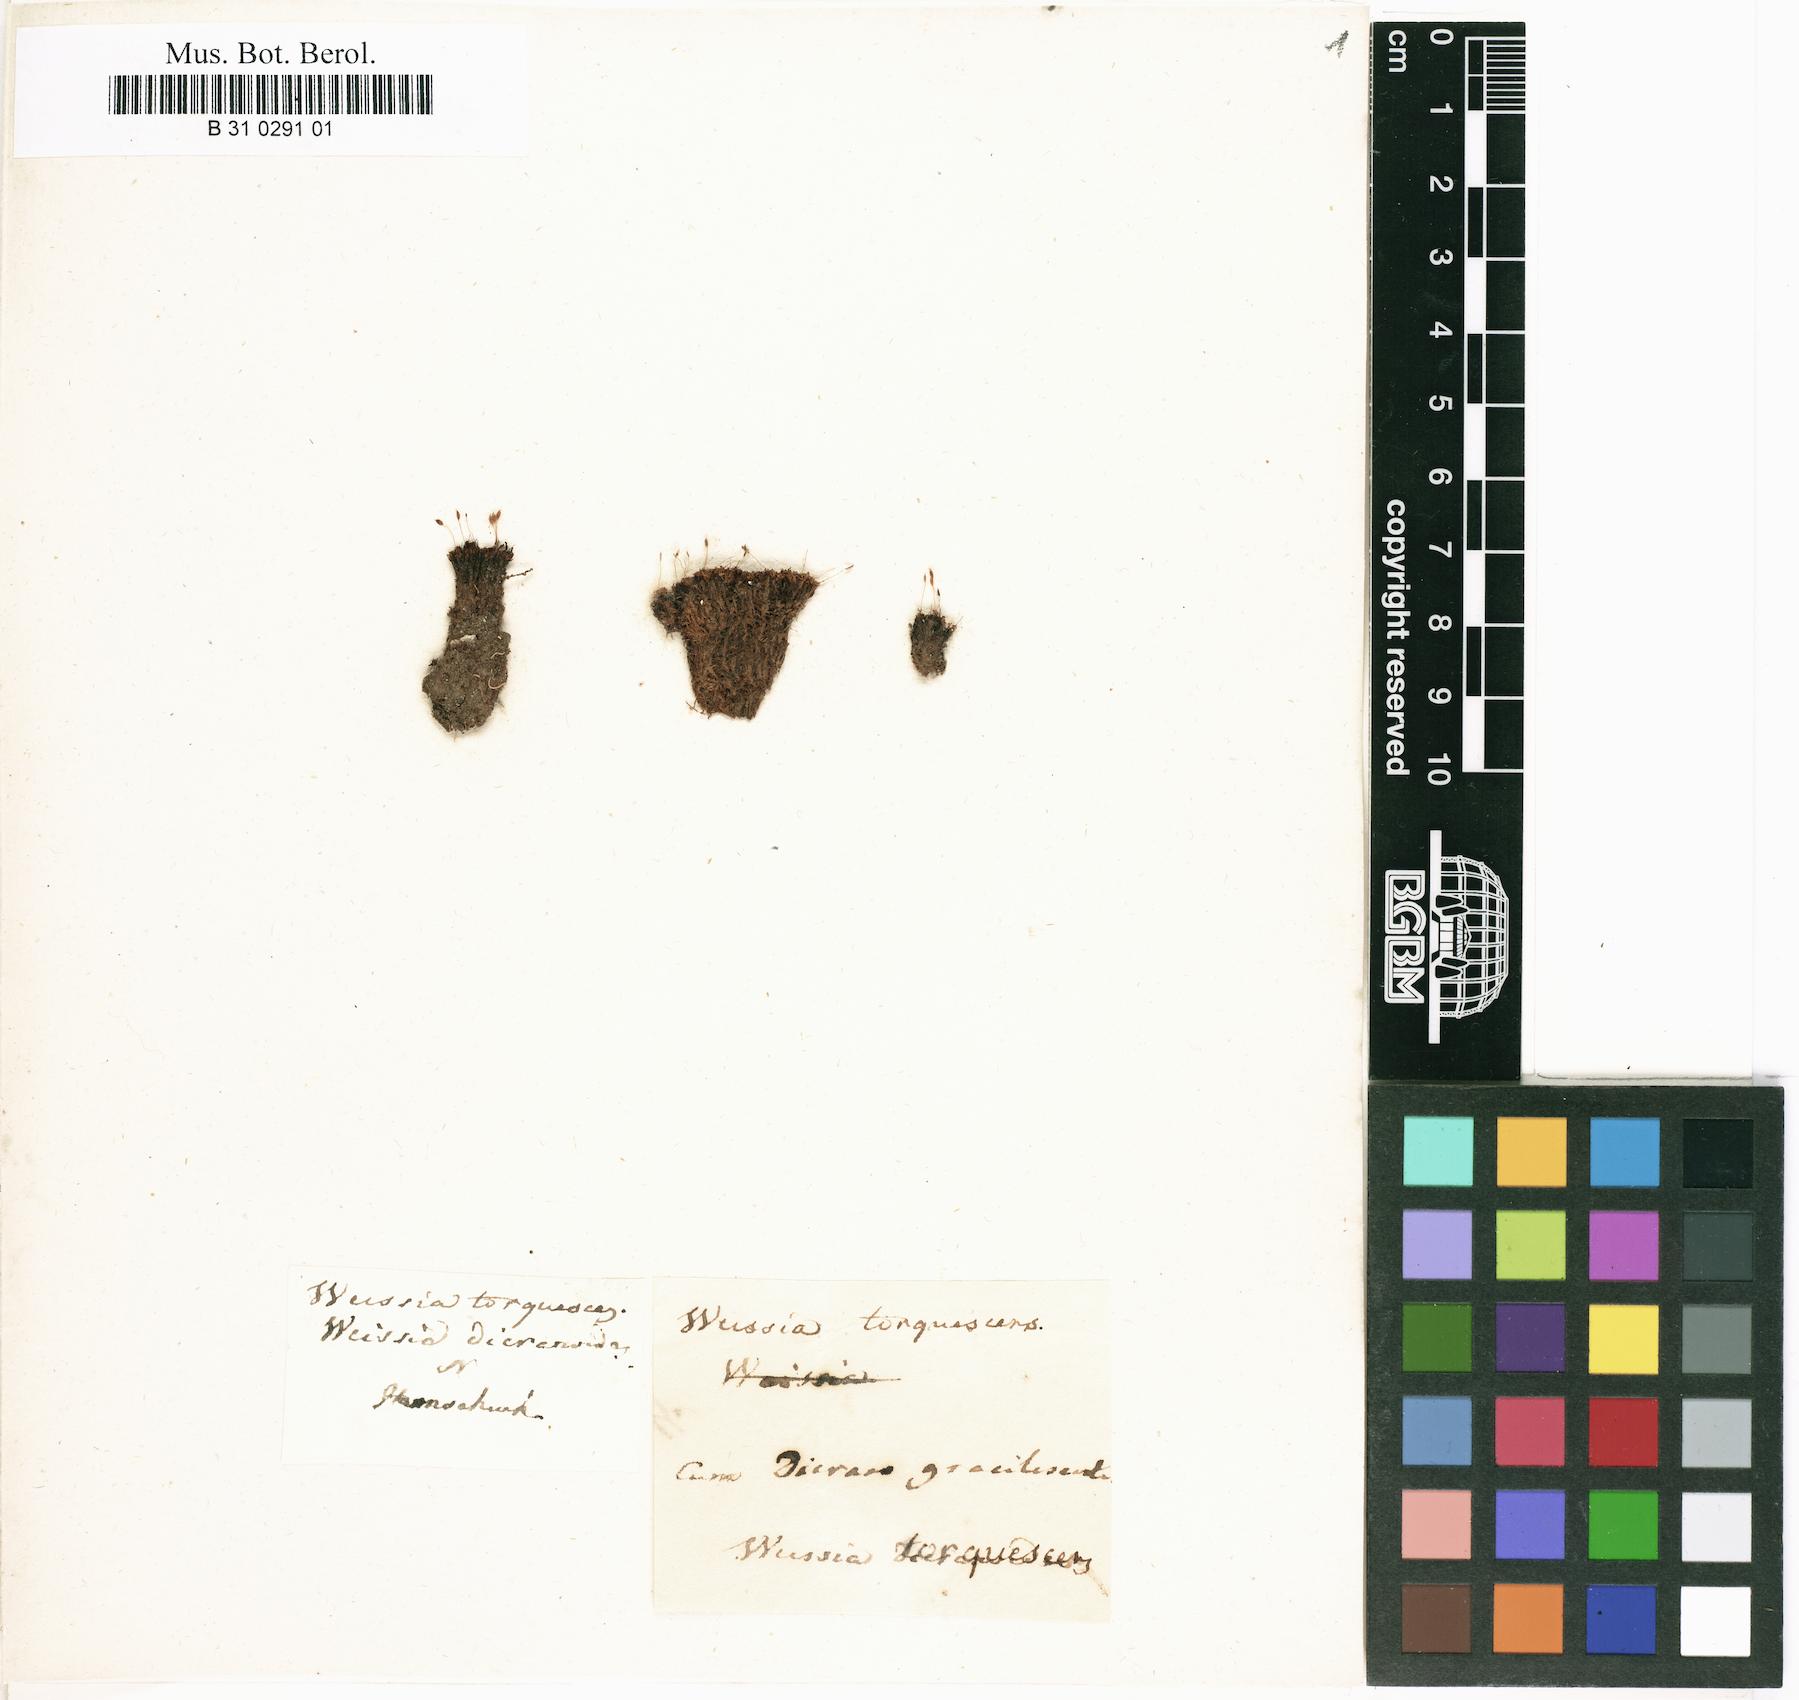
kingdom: Plantae
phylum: Bryophyta
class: Bryopsida
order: Dicranales
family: Rhabdoweisiaceae
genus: Cynodontium
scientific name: Cynodontium serrulatum
